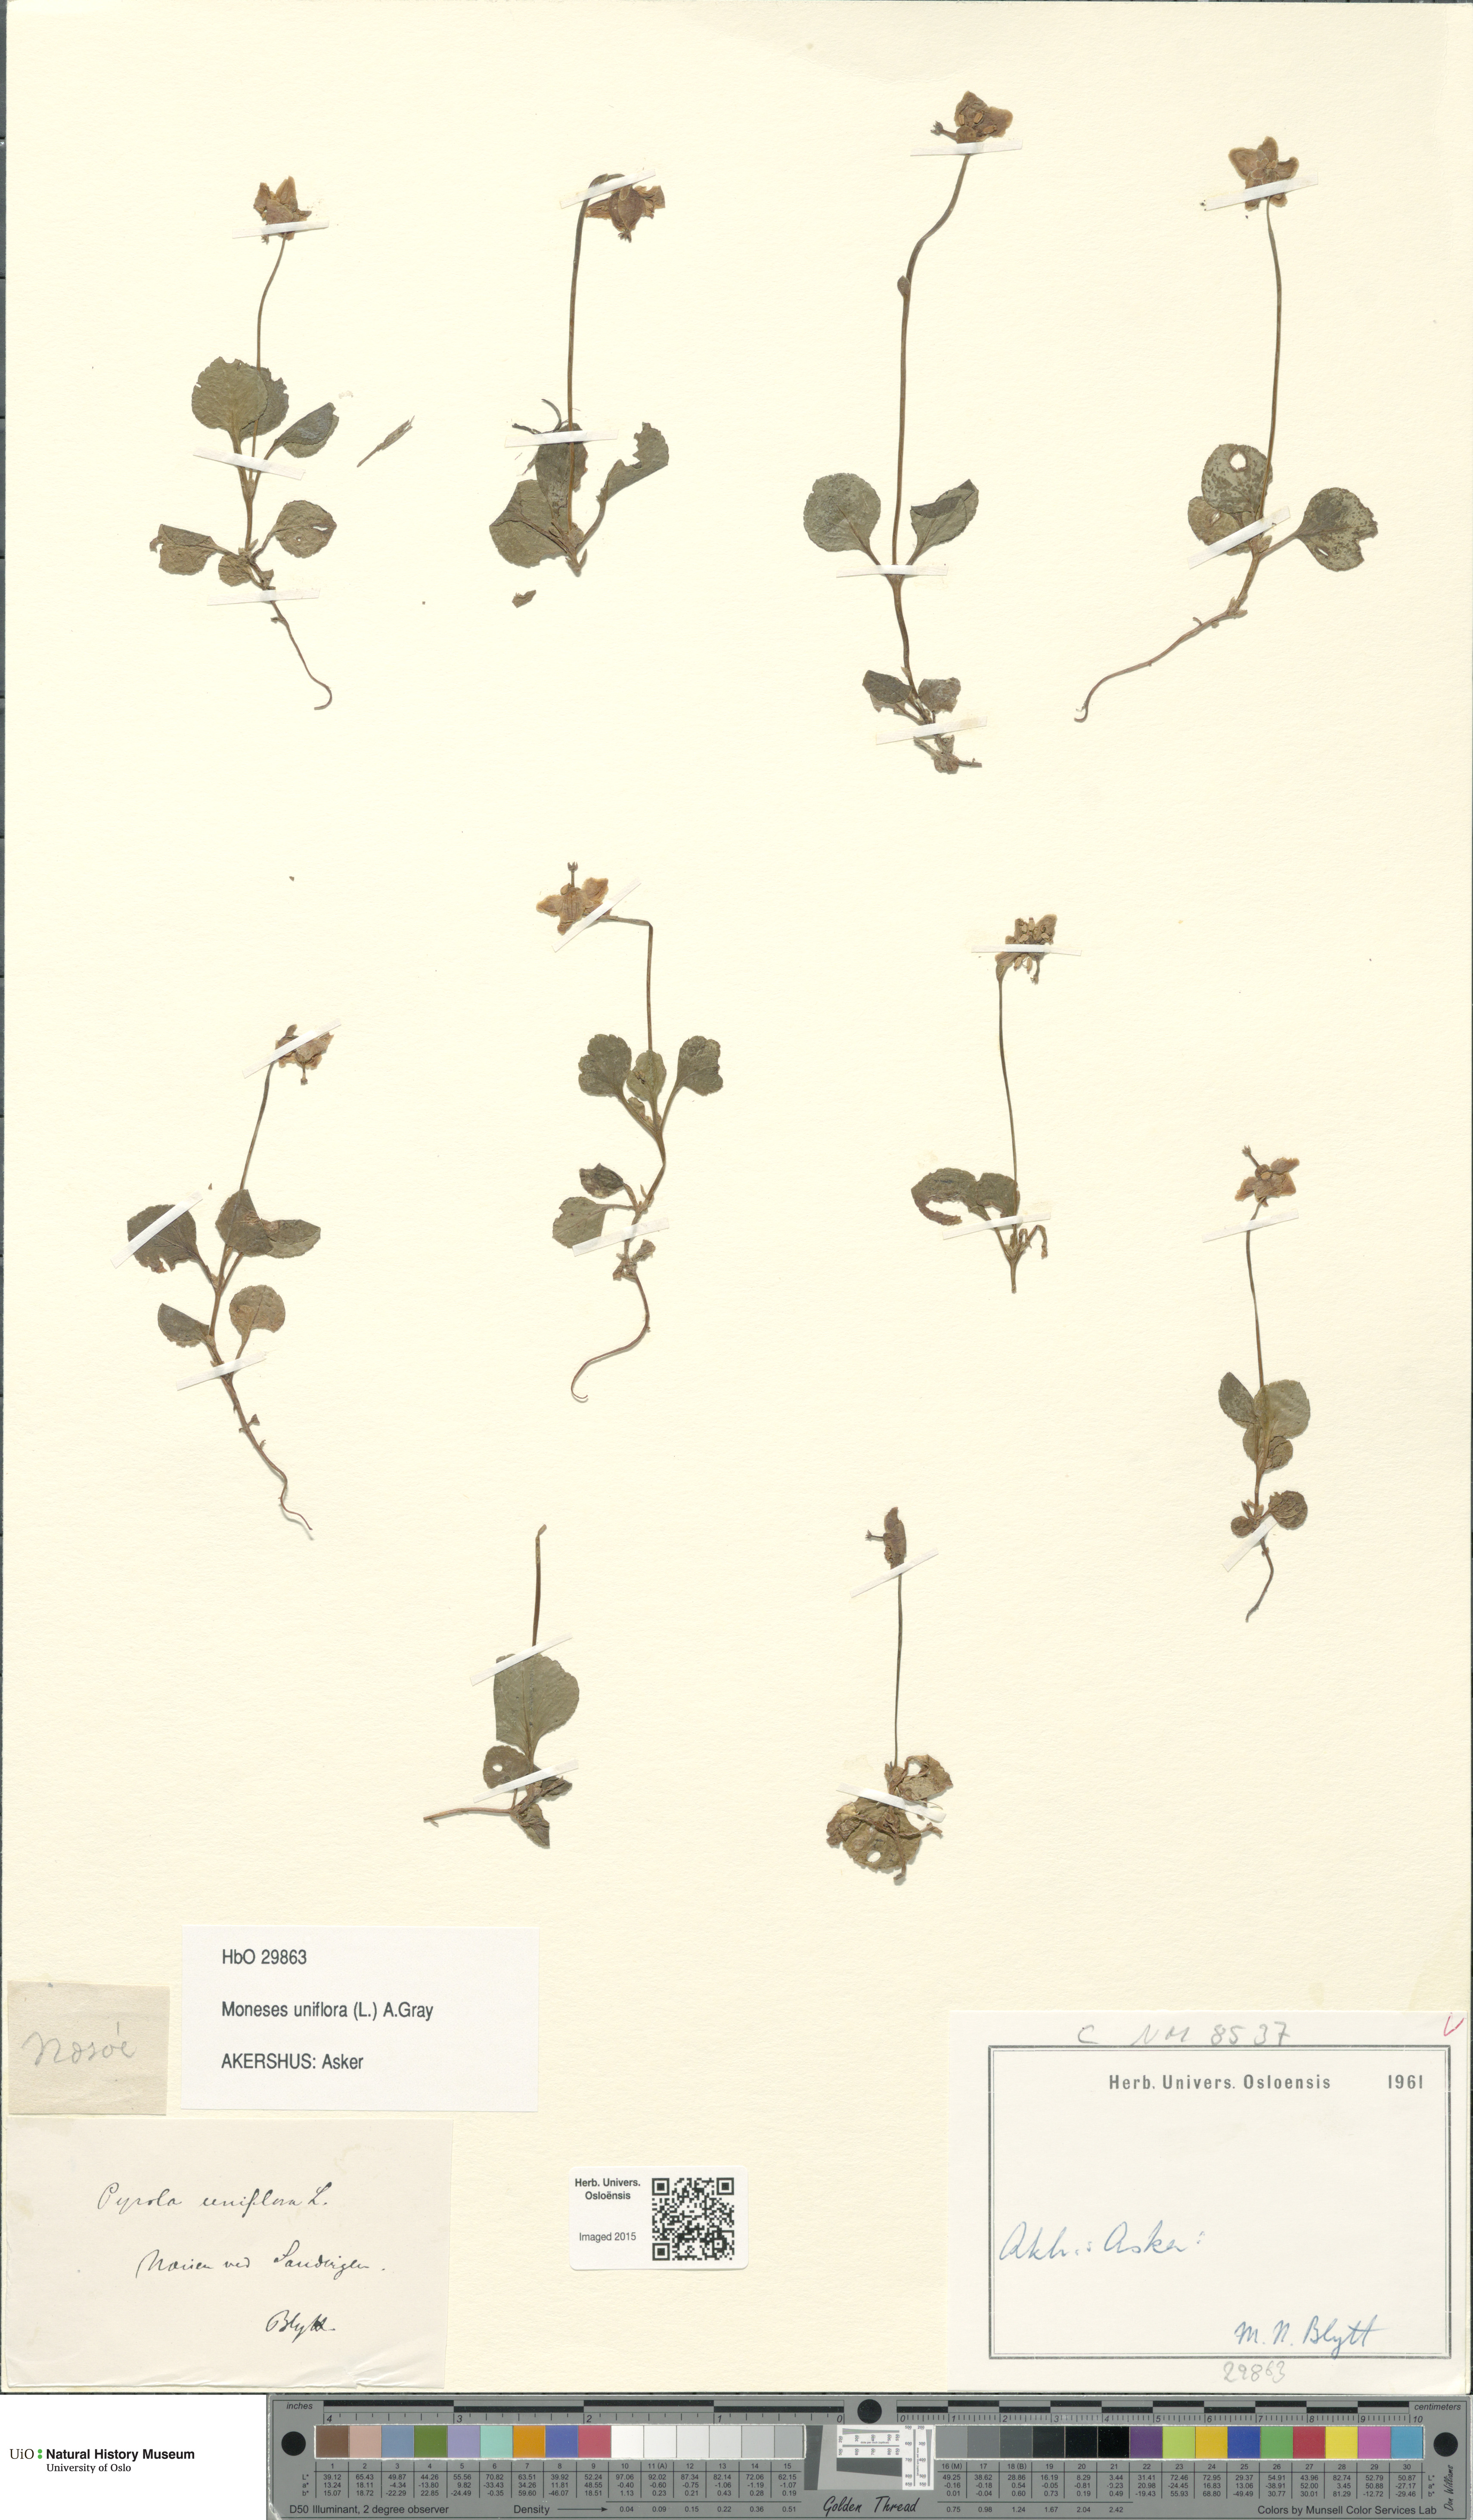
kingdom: Plantae
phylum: Tracheophyta
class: Magnoliopsida
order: Ericales
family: Ericaceae
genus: Moneses
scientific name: Moneses uniflora
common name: One-flowered wintergreen
